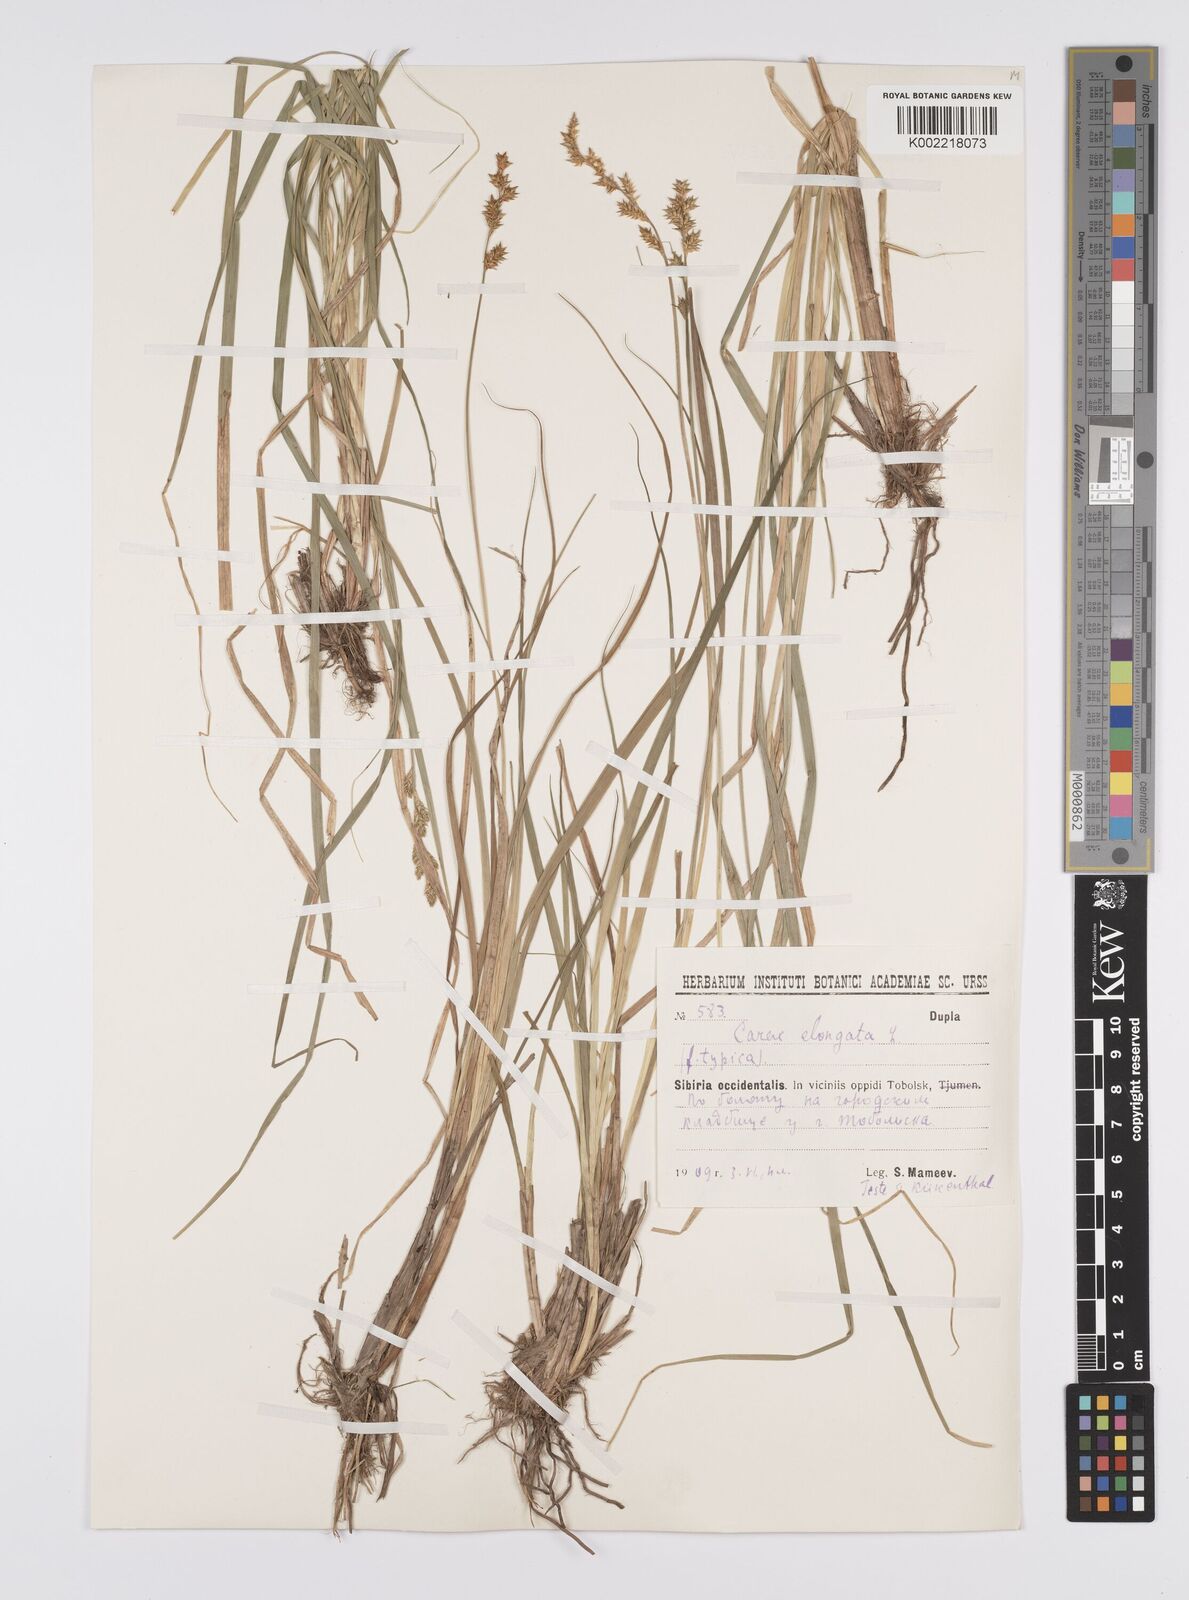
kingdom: Plantae
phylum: Tracheophyta
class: Liliopsida
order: Poales
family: Cyperaceae
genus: Carex
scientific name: Carex elongata
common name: Elongated sedge
